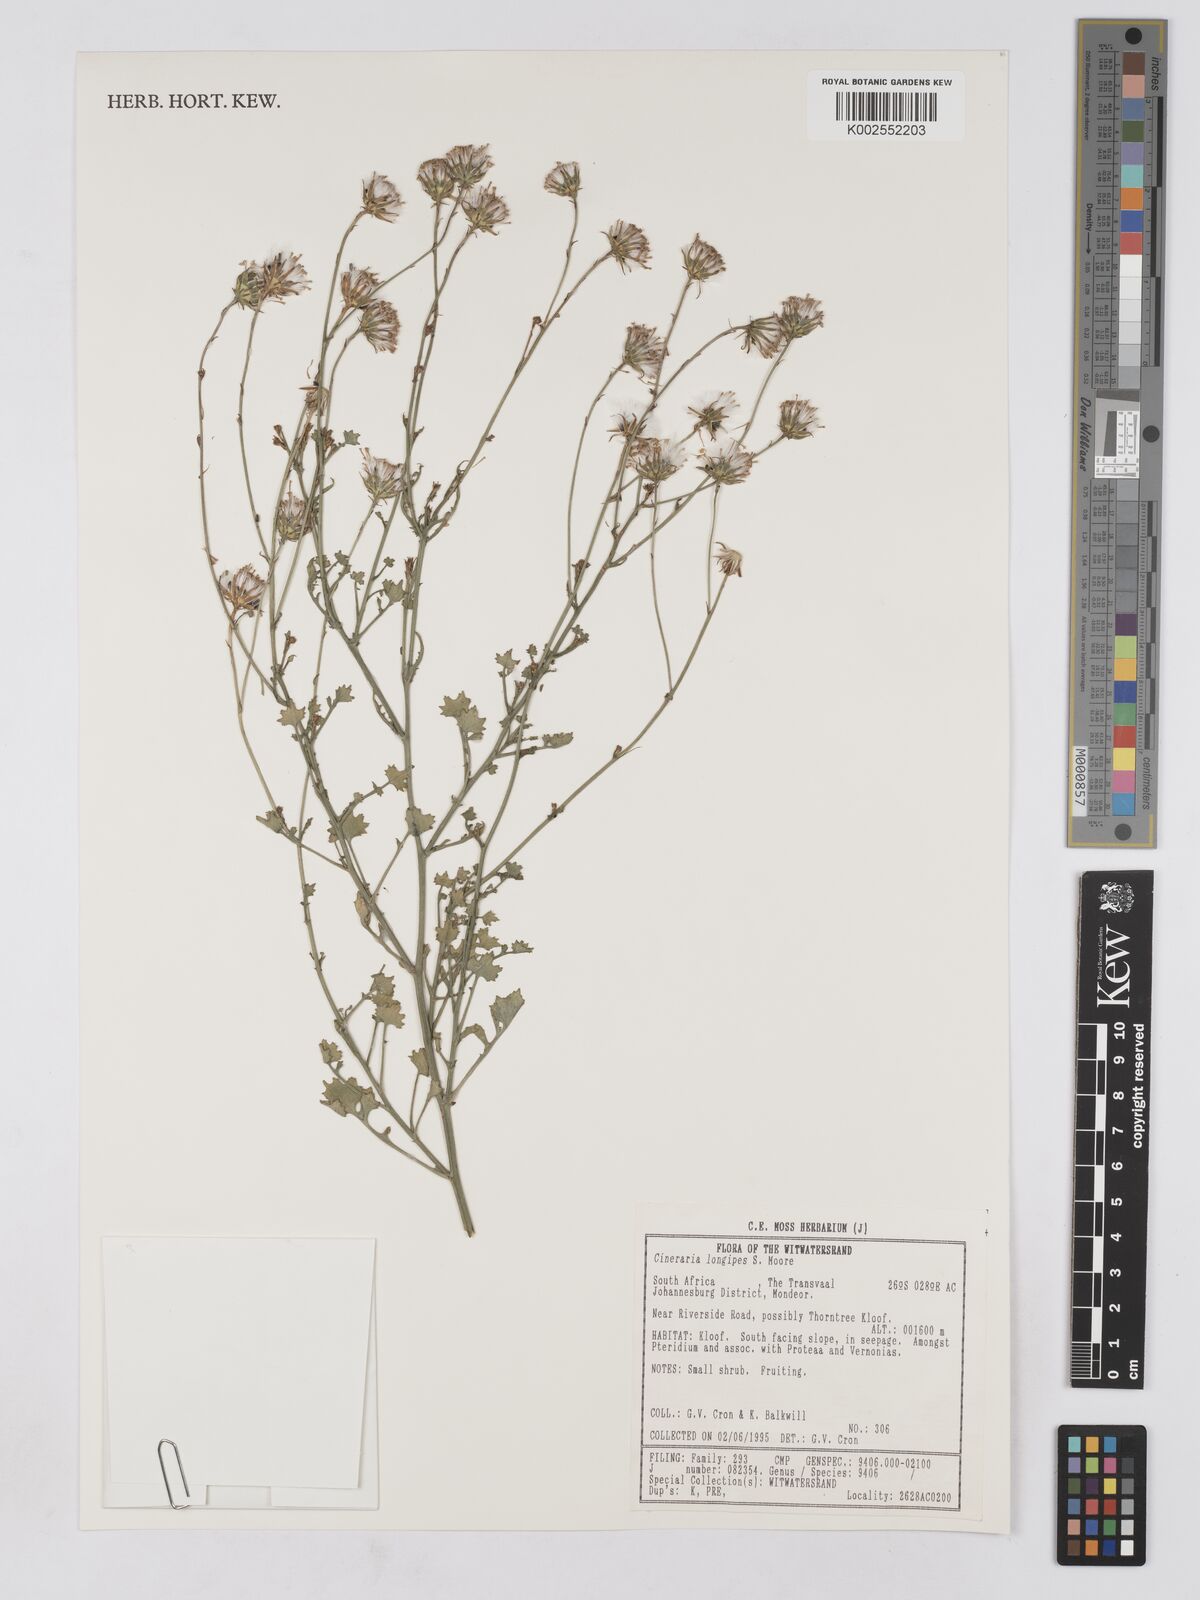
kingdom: Plantae
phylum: Tracheophyta
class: Magnoliopsida
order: Asterales
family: Asteraceae
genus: Cineraria
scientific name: Cineraria longipes
